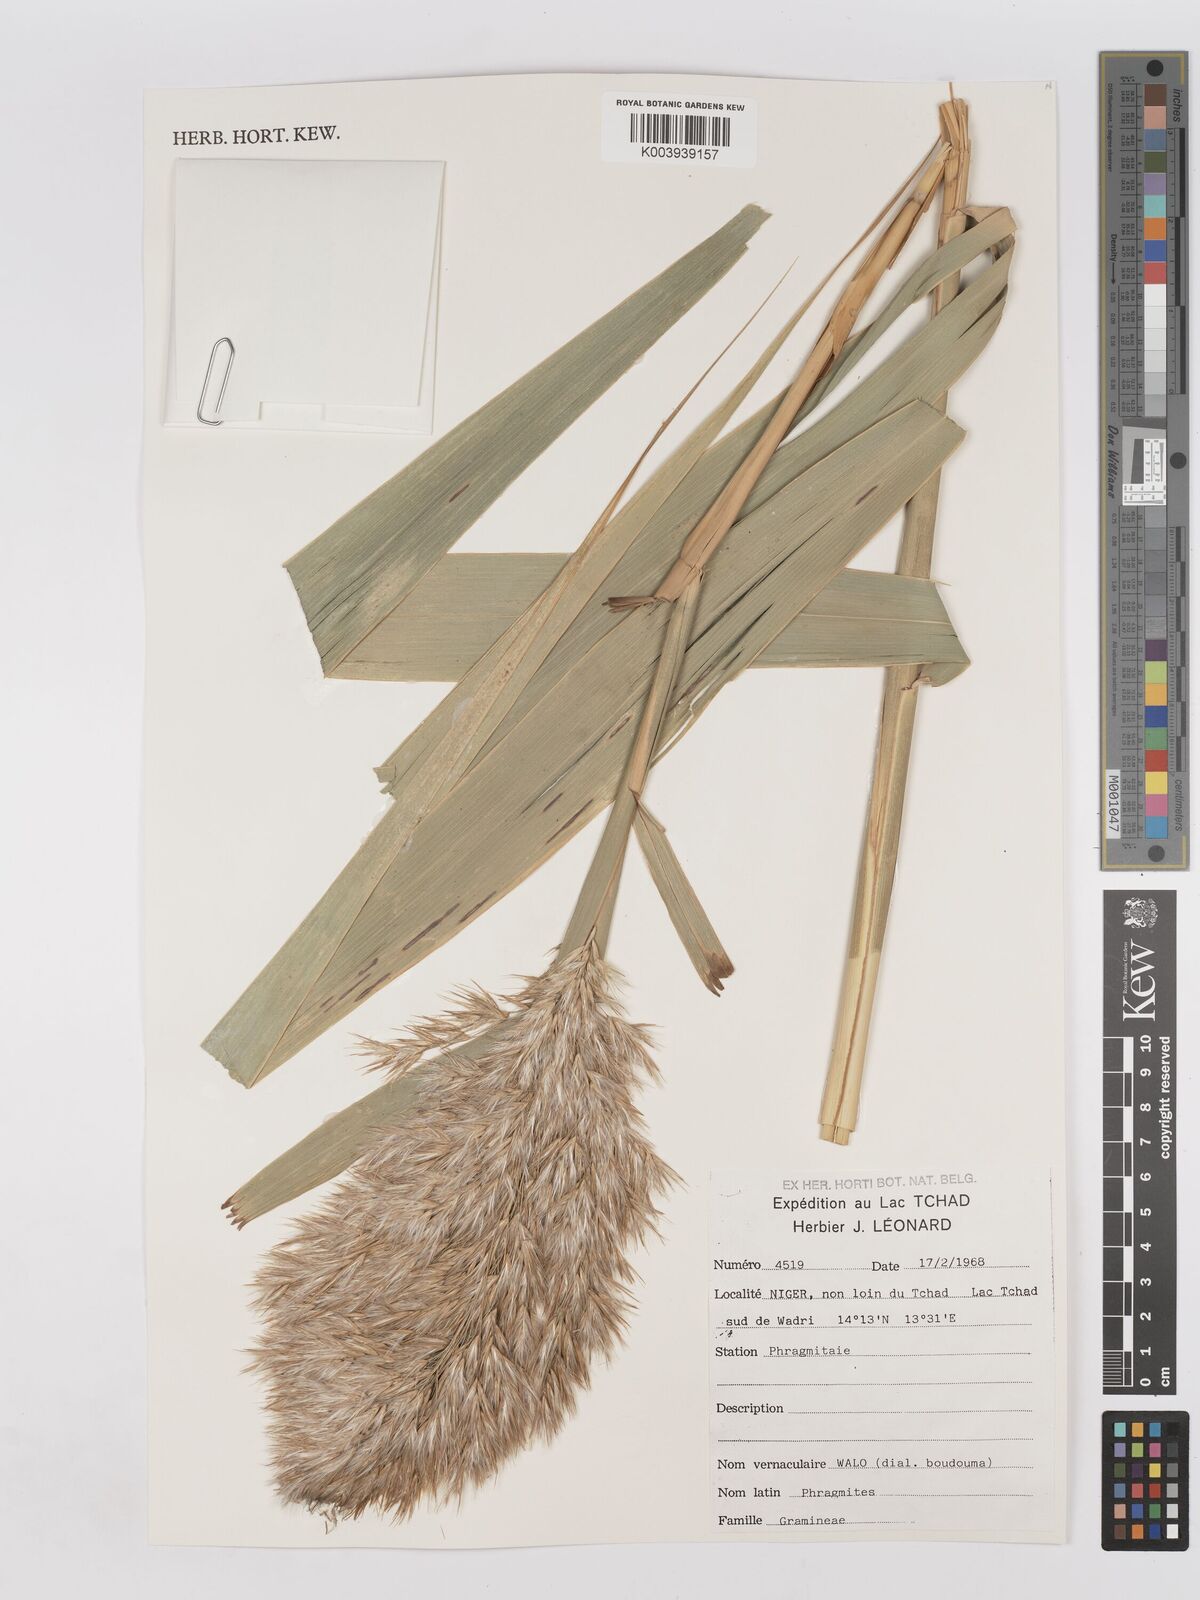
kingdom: Plantae
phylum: Tracheophyta
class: Liliopsida
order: Poales
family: Poaceae
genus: Phragmites
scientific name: Phragmites australis
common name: Common reed
